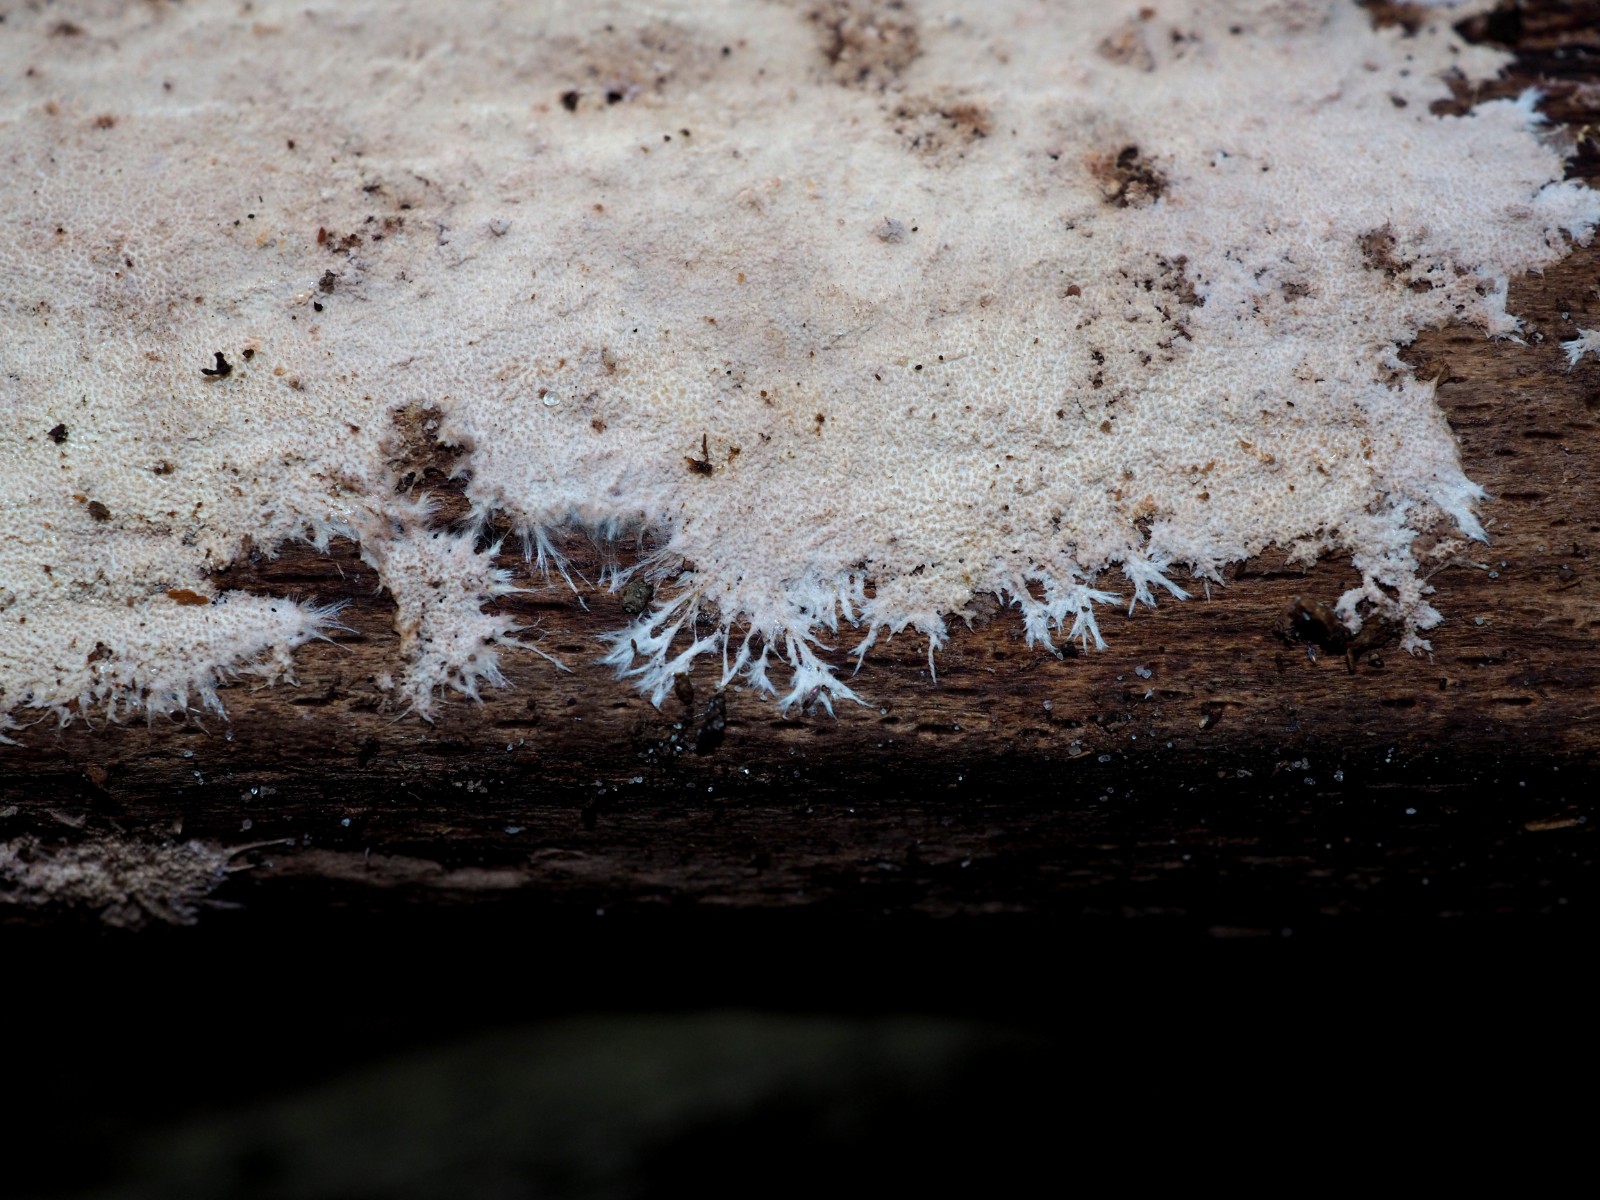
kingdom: Fungi
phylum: Basidiomycota
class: Agaricomycetes
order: Polyporales
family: Steccherinaceae
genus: Steccherinum
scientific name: Steccherinum fimbriatum
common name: trådet skønpig
